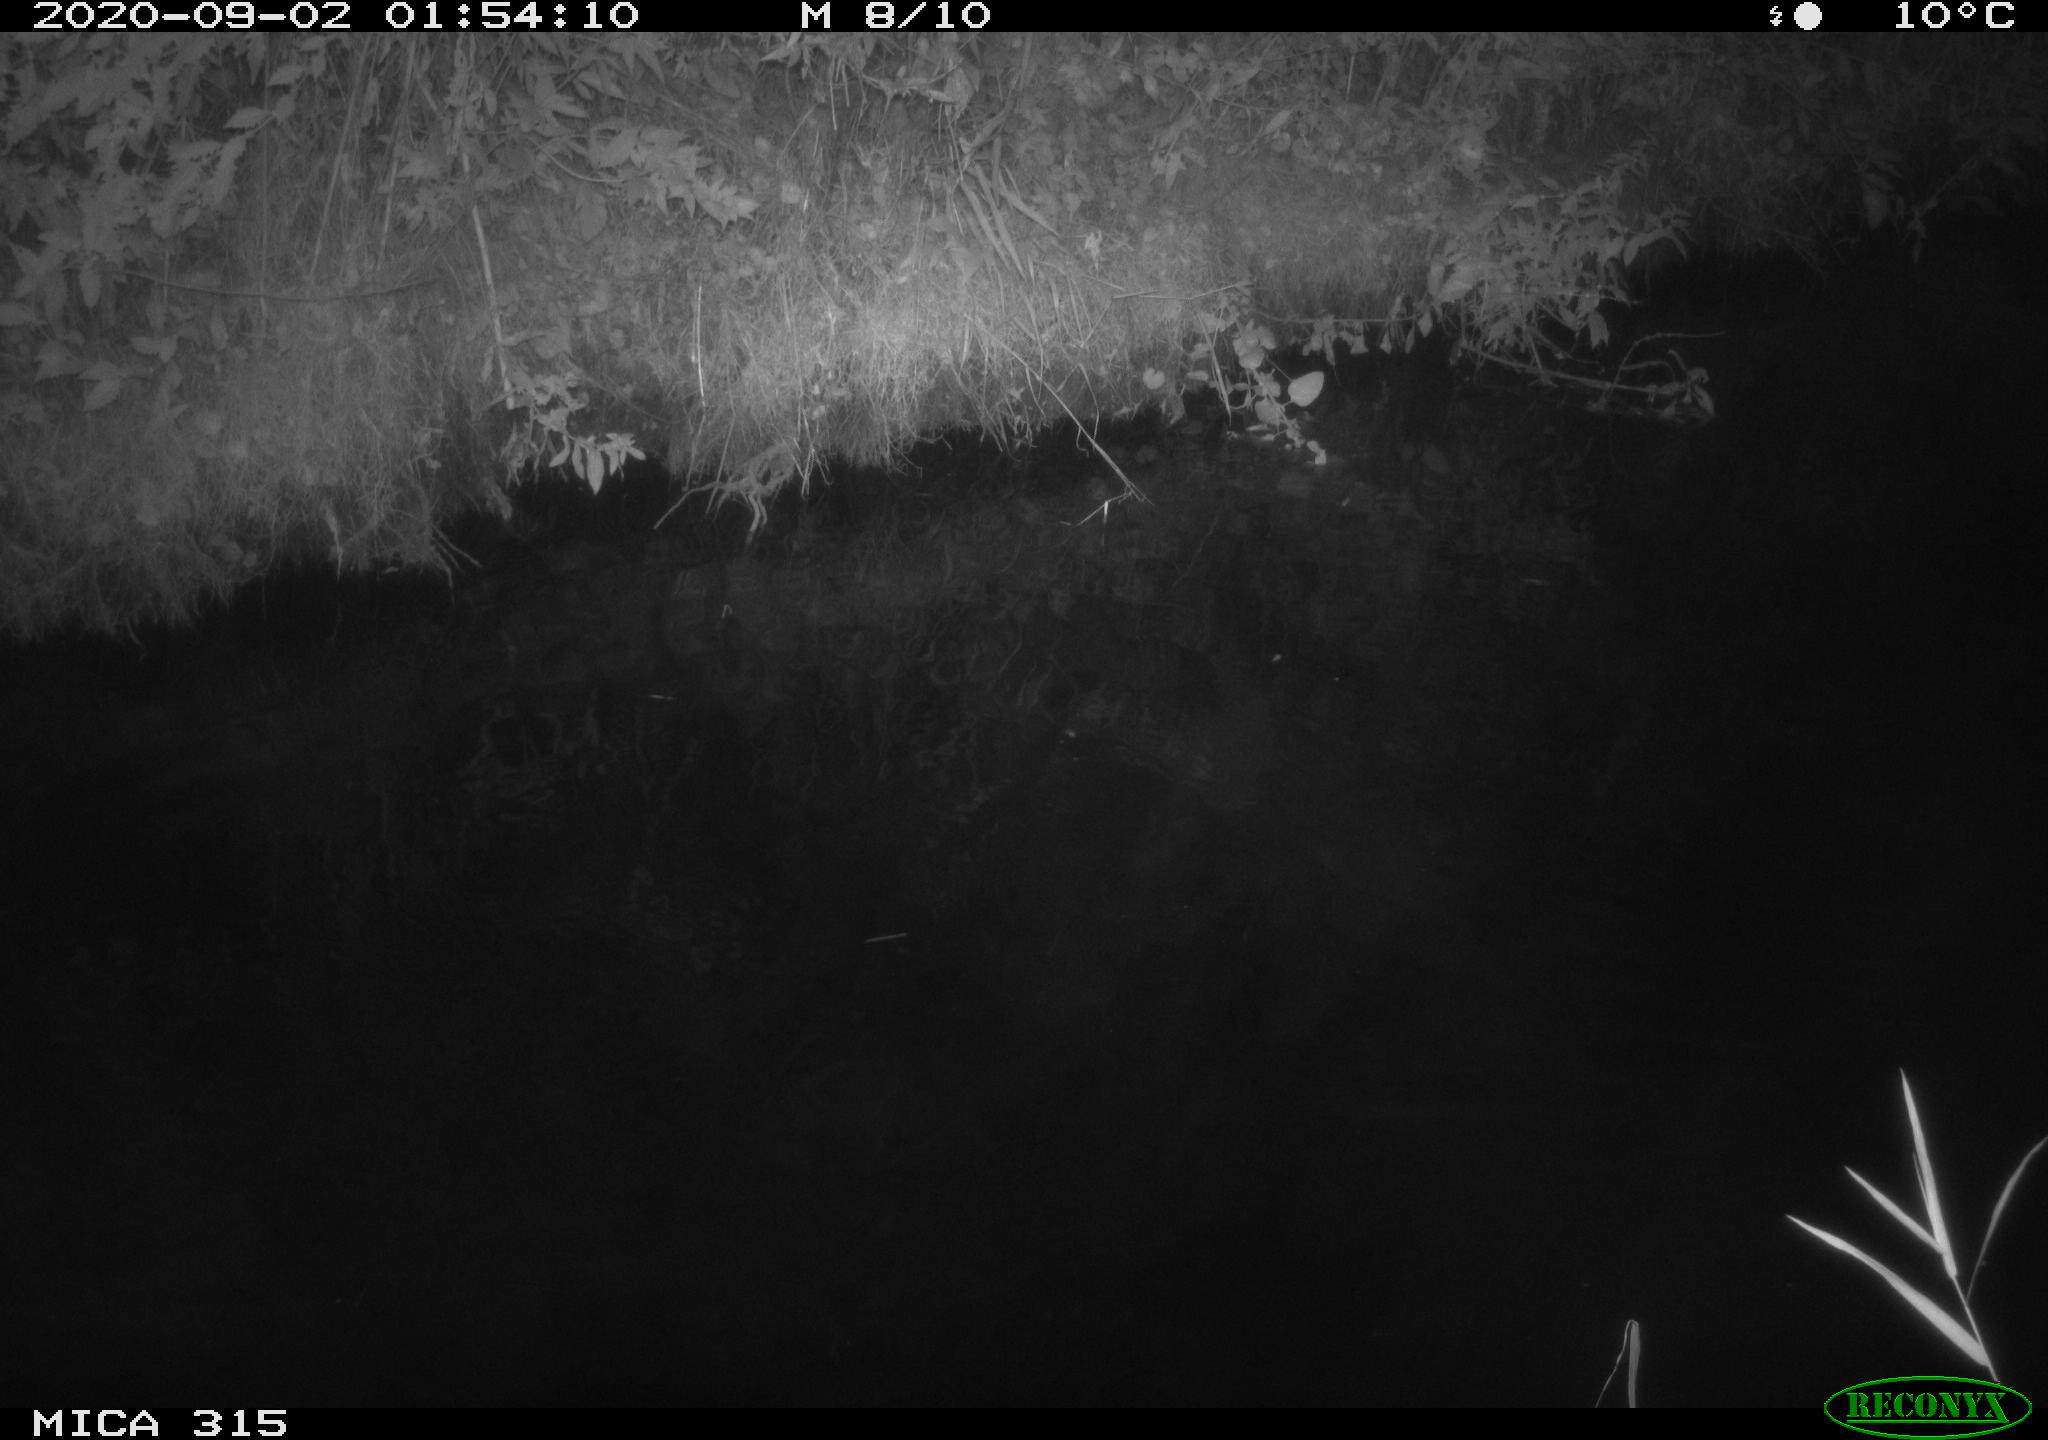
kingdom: Animalia
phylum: Chordata
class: Aves
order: Anseriformes
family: Anatidae
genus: Anas
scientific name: Anas platyrhynchos
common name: Mallard
